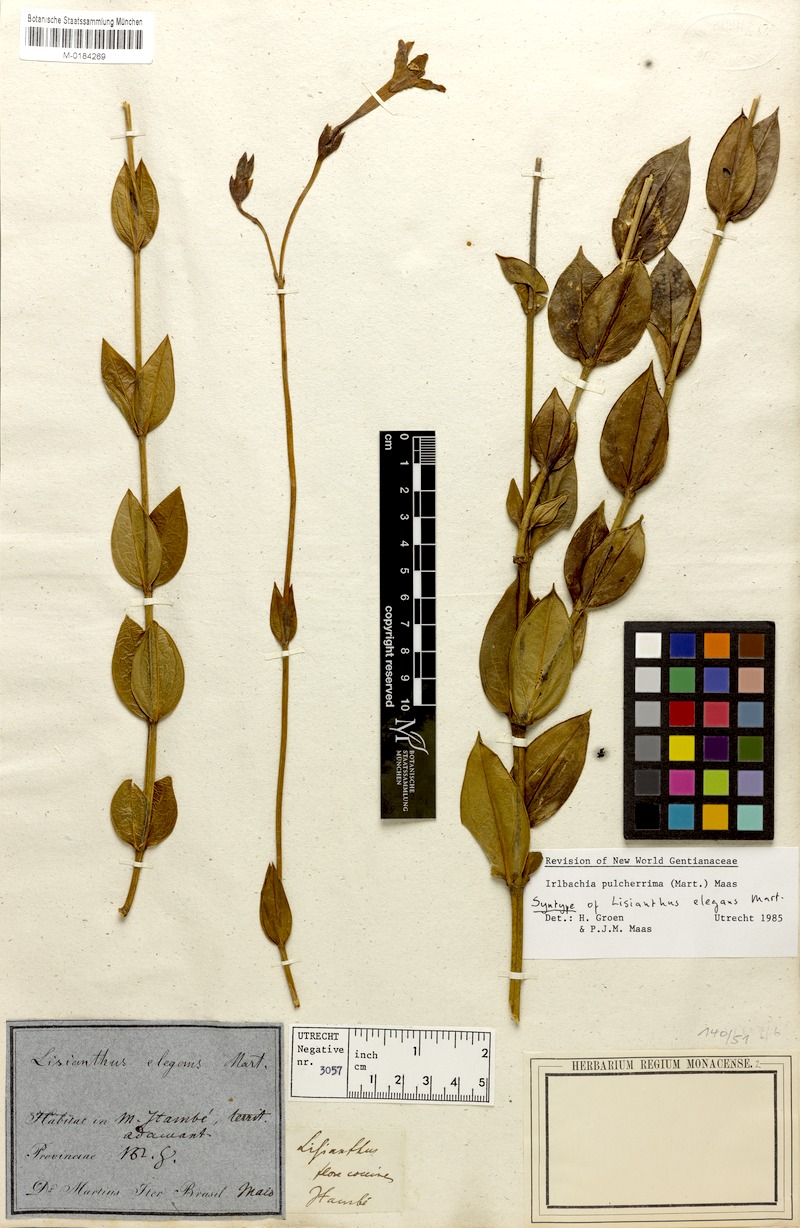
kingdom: Plantae
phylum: Tracheophyta
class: Magnoliopsida
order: Gentianales
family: Gentianaceae
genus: Calolisianthus
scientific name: Calolisianthus pulcherrimus
